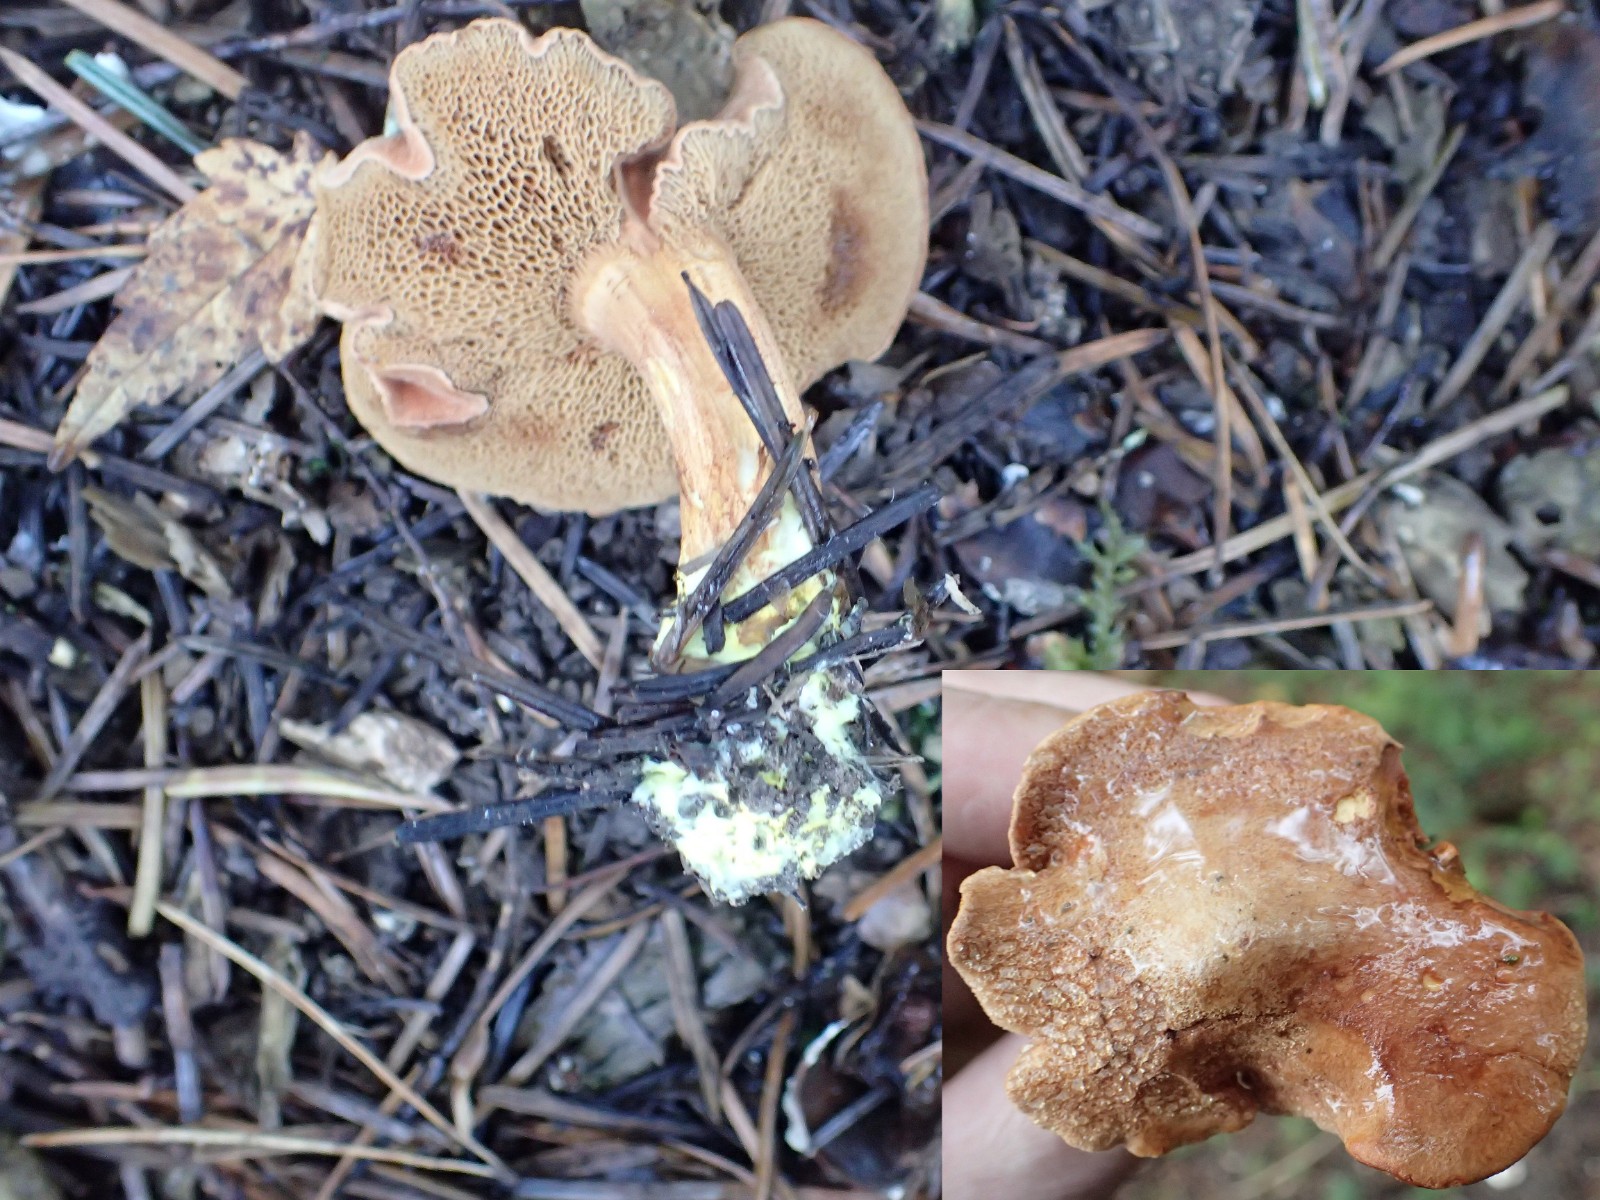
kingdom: Fungi
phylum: Basidiomycota
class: Agaricomycetes
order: Boletales
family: Boletaceae
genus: Chalciporus
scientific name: Chalciporus piperatus
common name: peberrørhat
